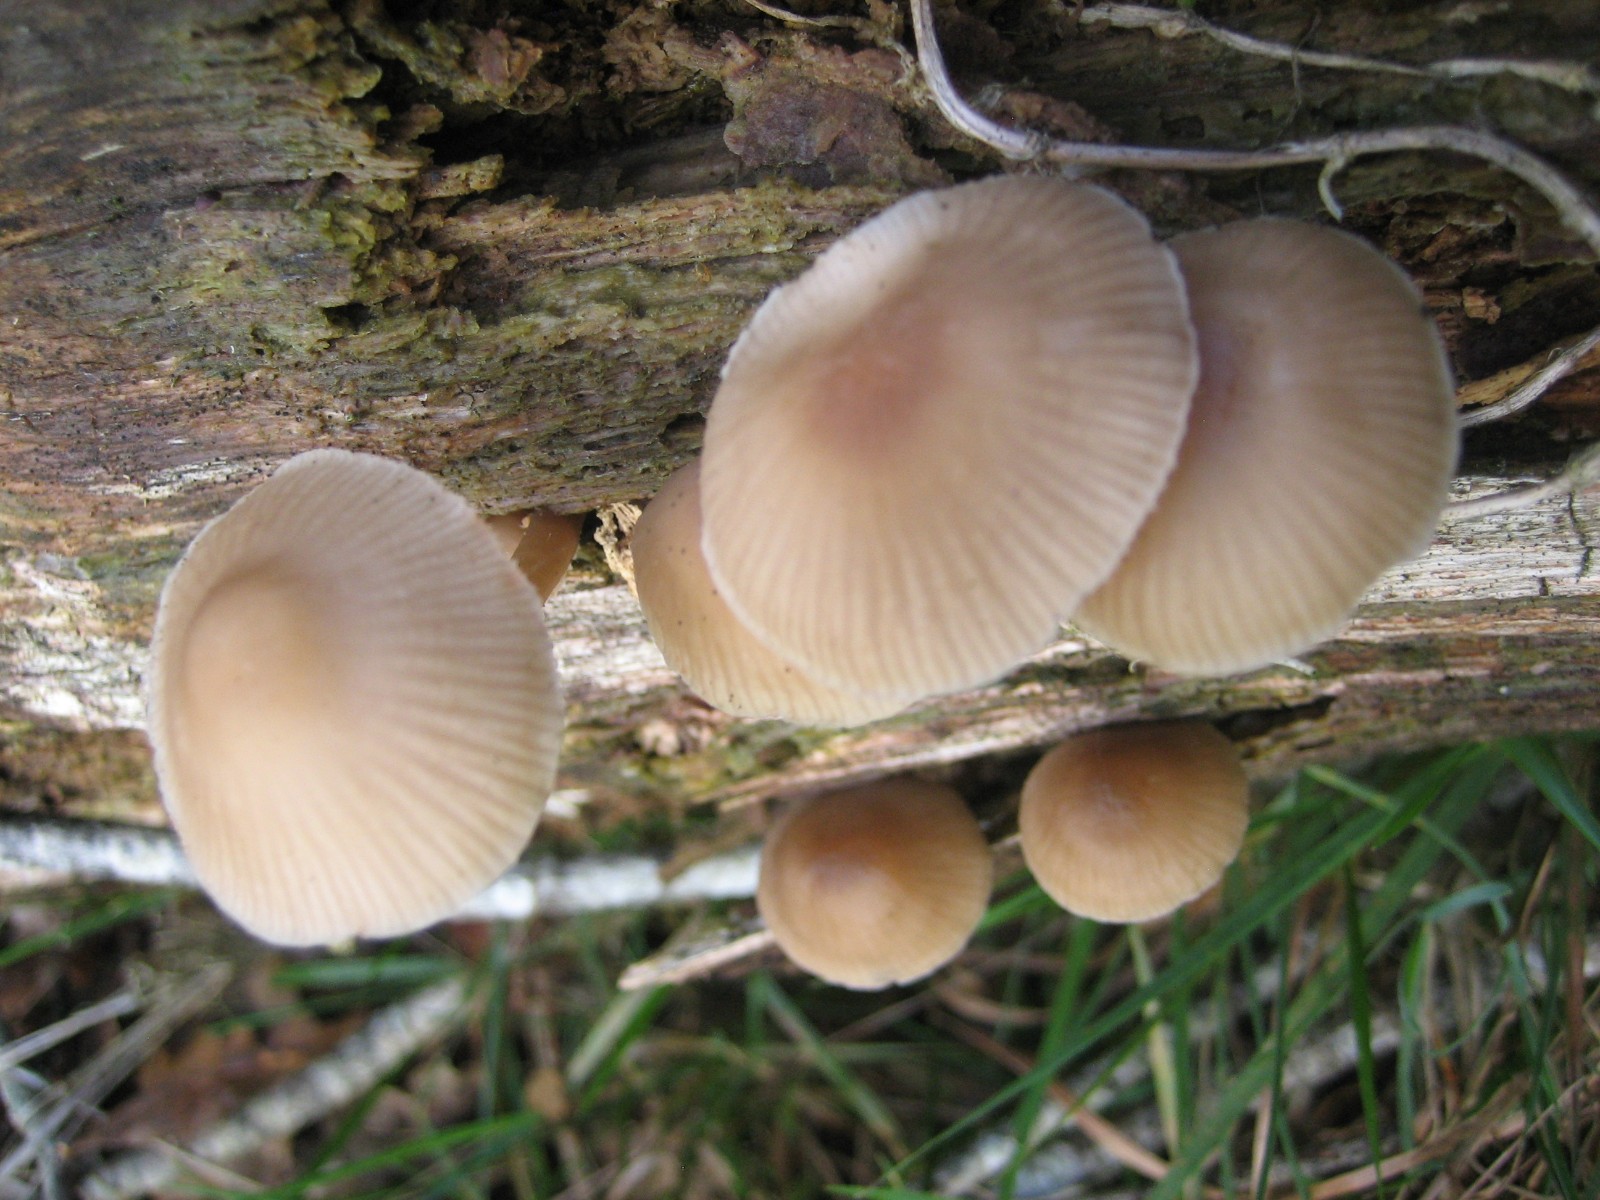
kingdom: Fungi
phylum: Basidiomycota
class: Agaricomycetes
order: Agaricales
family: Mycenaceae
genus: Mycena
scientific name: Mycena galericulata
